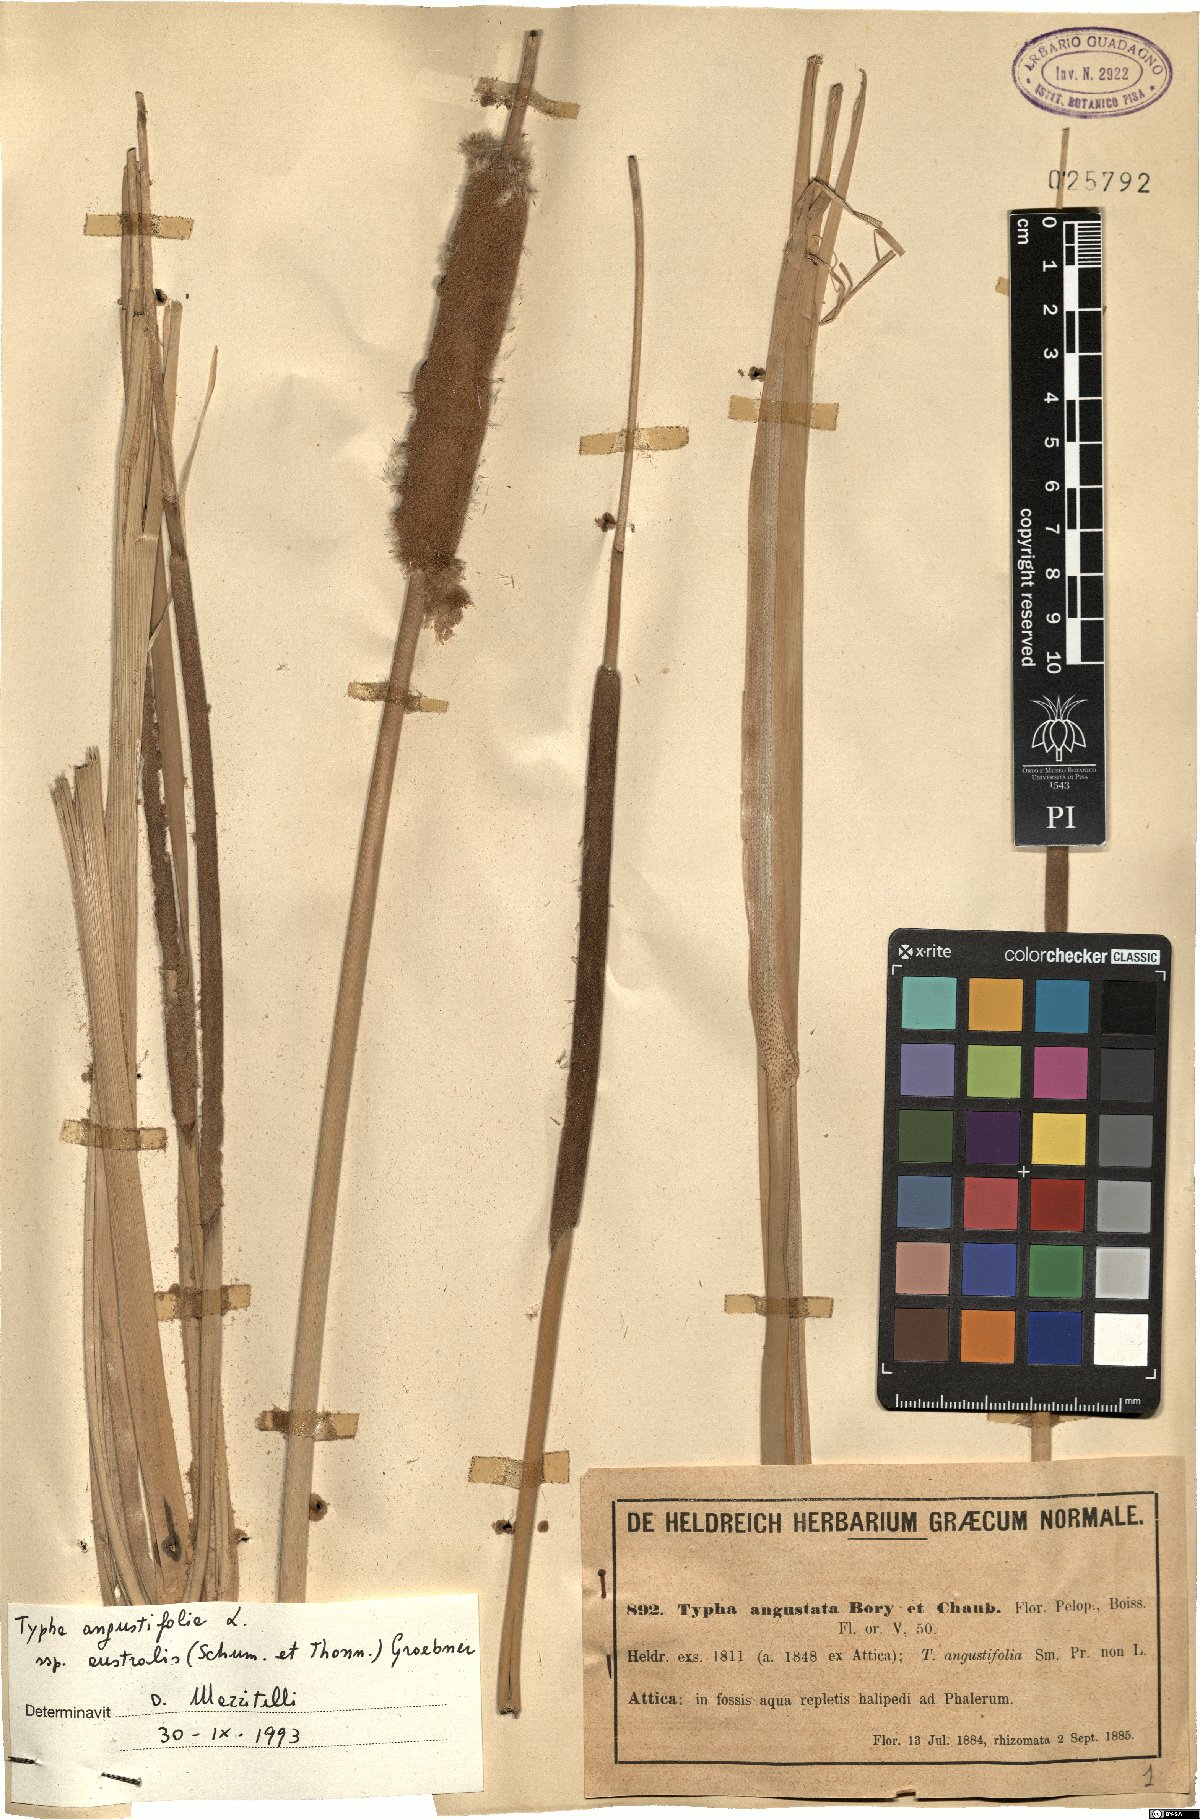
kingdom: Plantae
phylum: Tracheophyta
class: Liliopsida
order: Poales
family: Typhaceae
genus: Typha
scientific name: Typha domingensis
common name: Southern cattail
